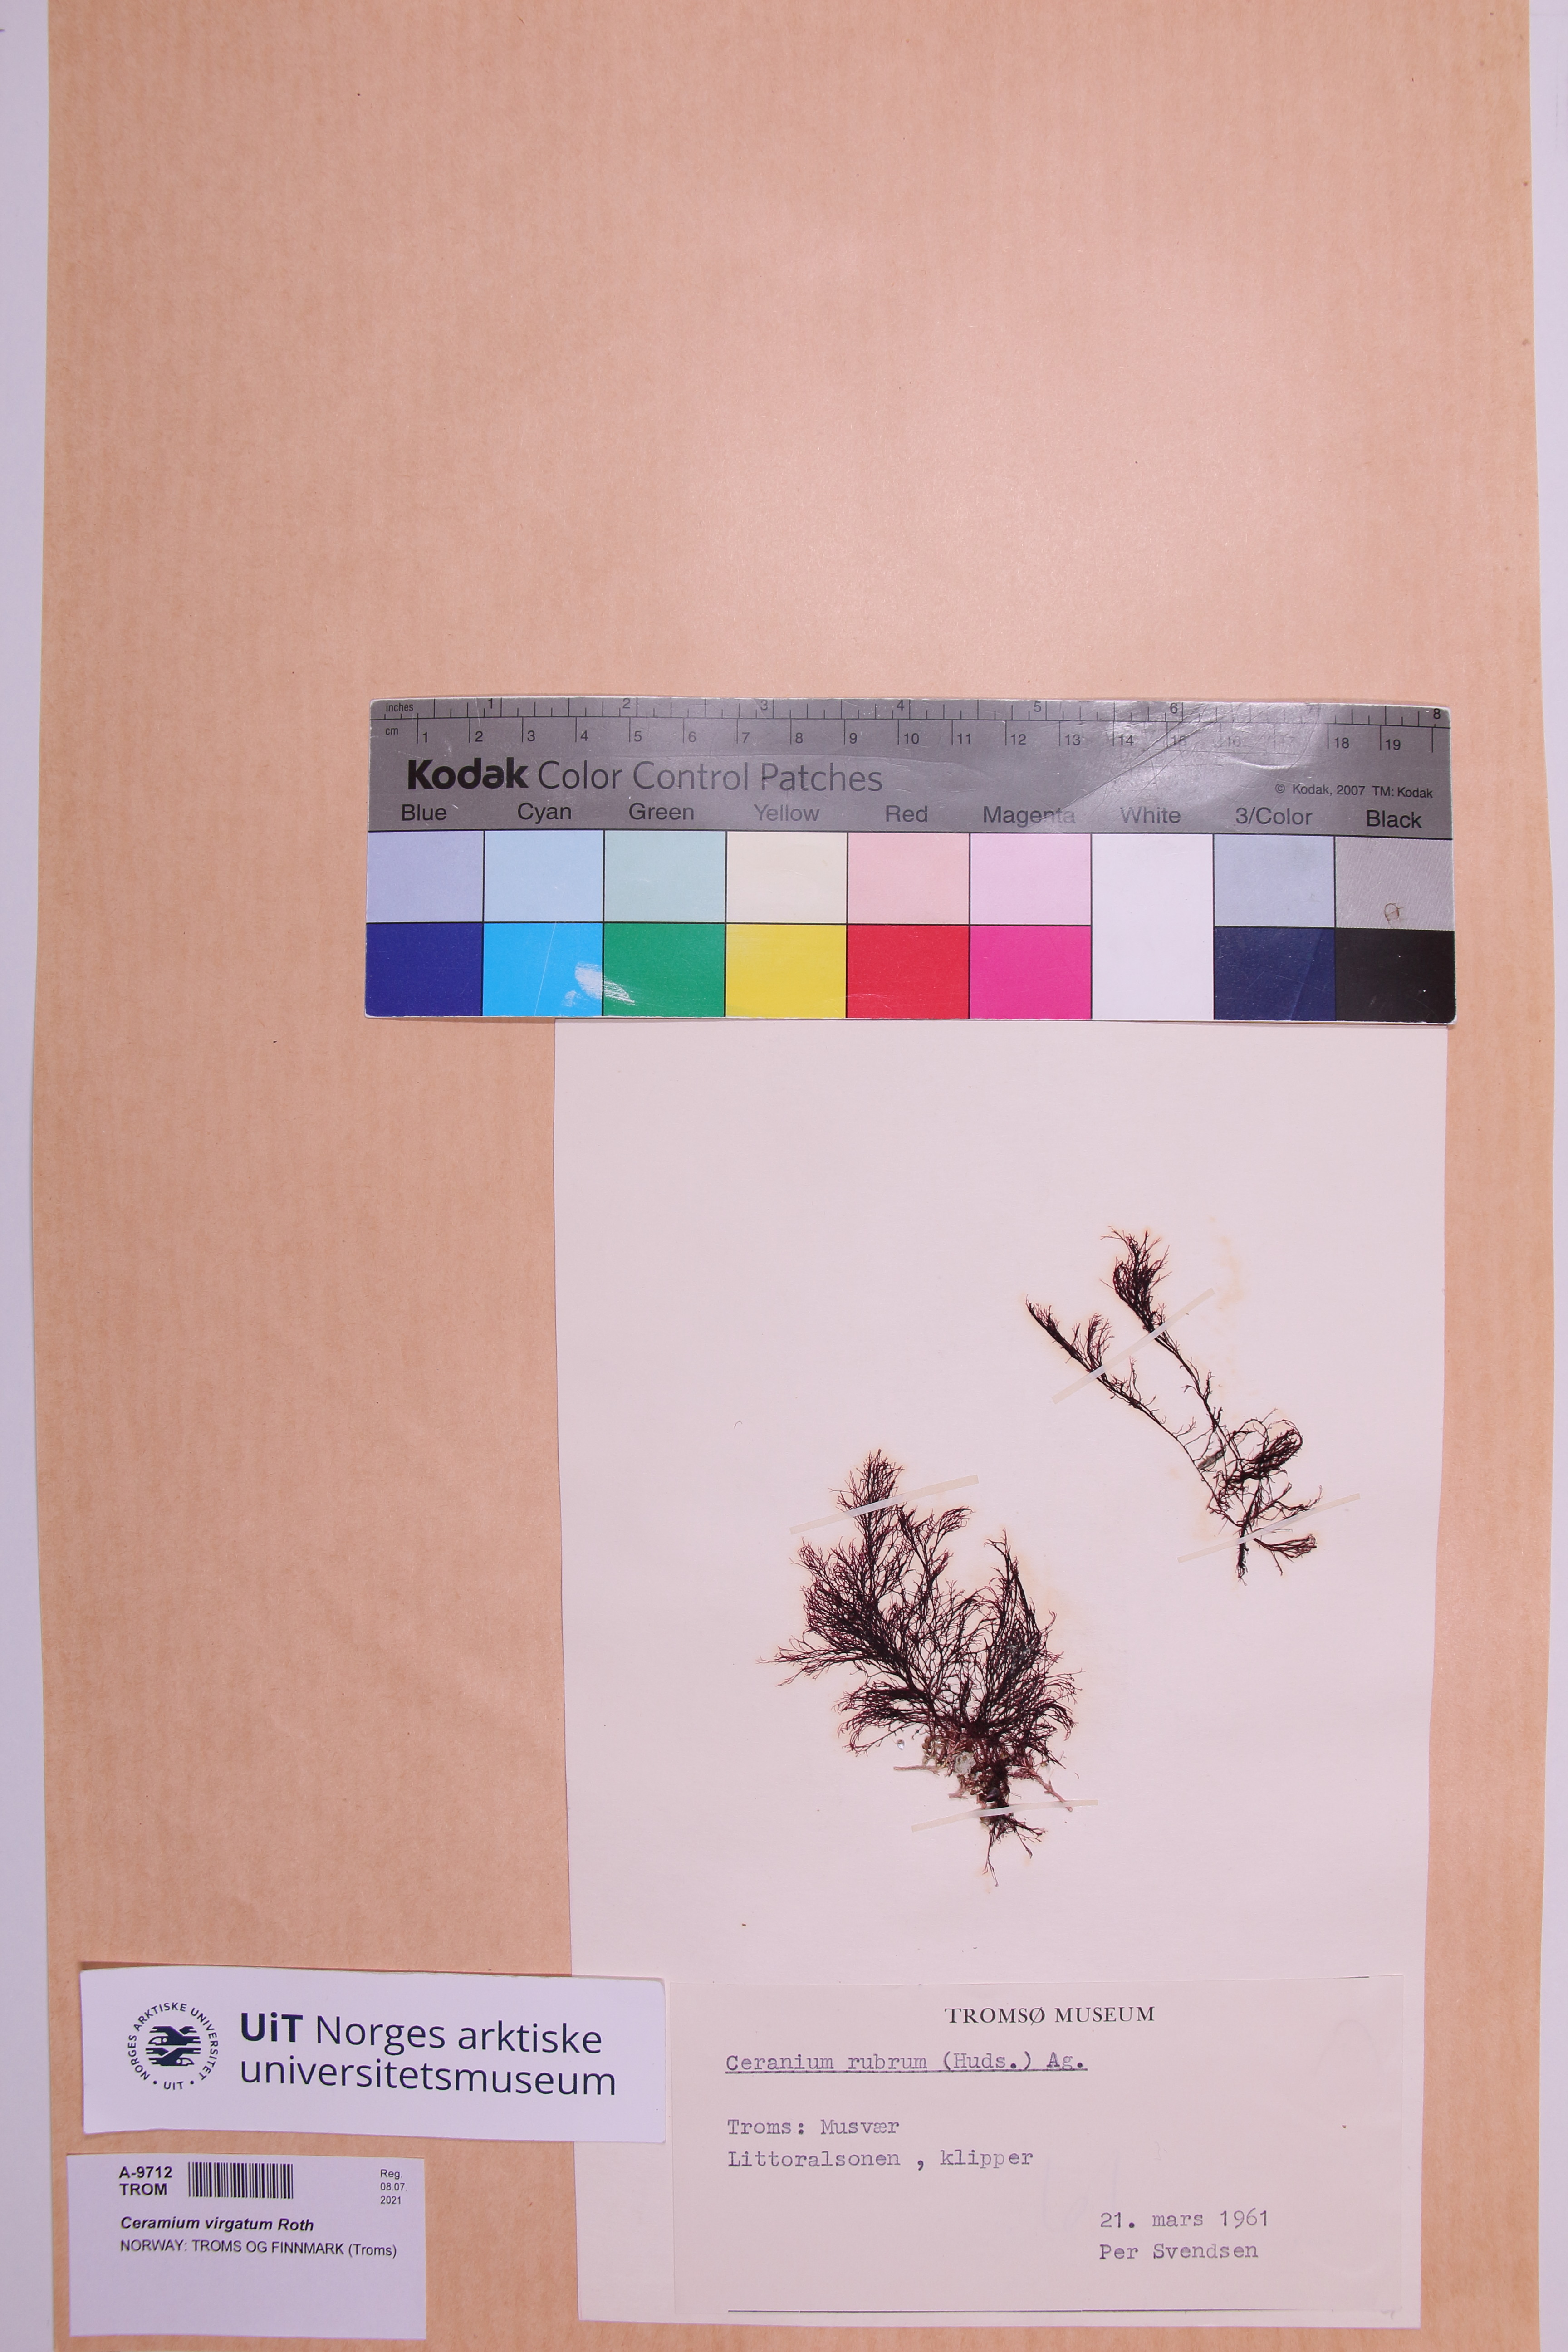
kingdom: Plantae
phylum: Rhodophyta
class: Florideophyceae
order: Ceramiales
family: Ceramiaceae
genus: Ceramium
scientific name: Ceramium virgatum
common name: Red hornweed
